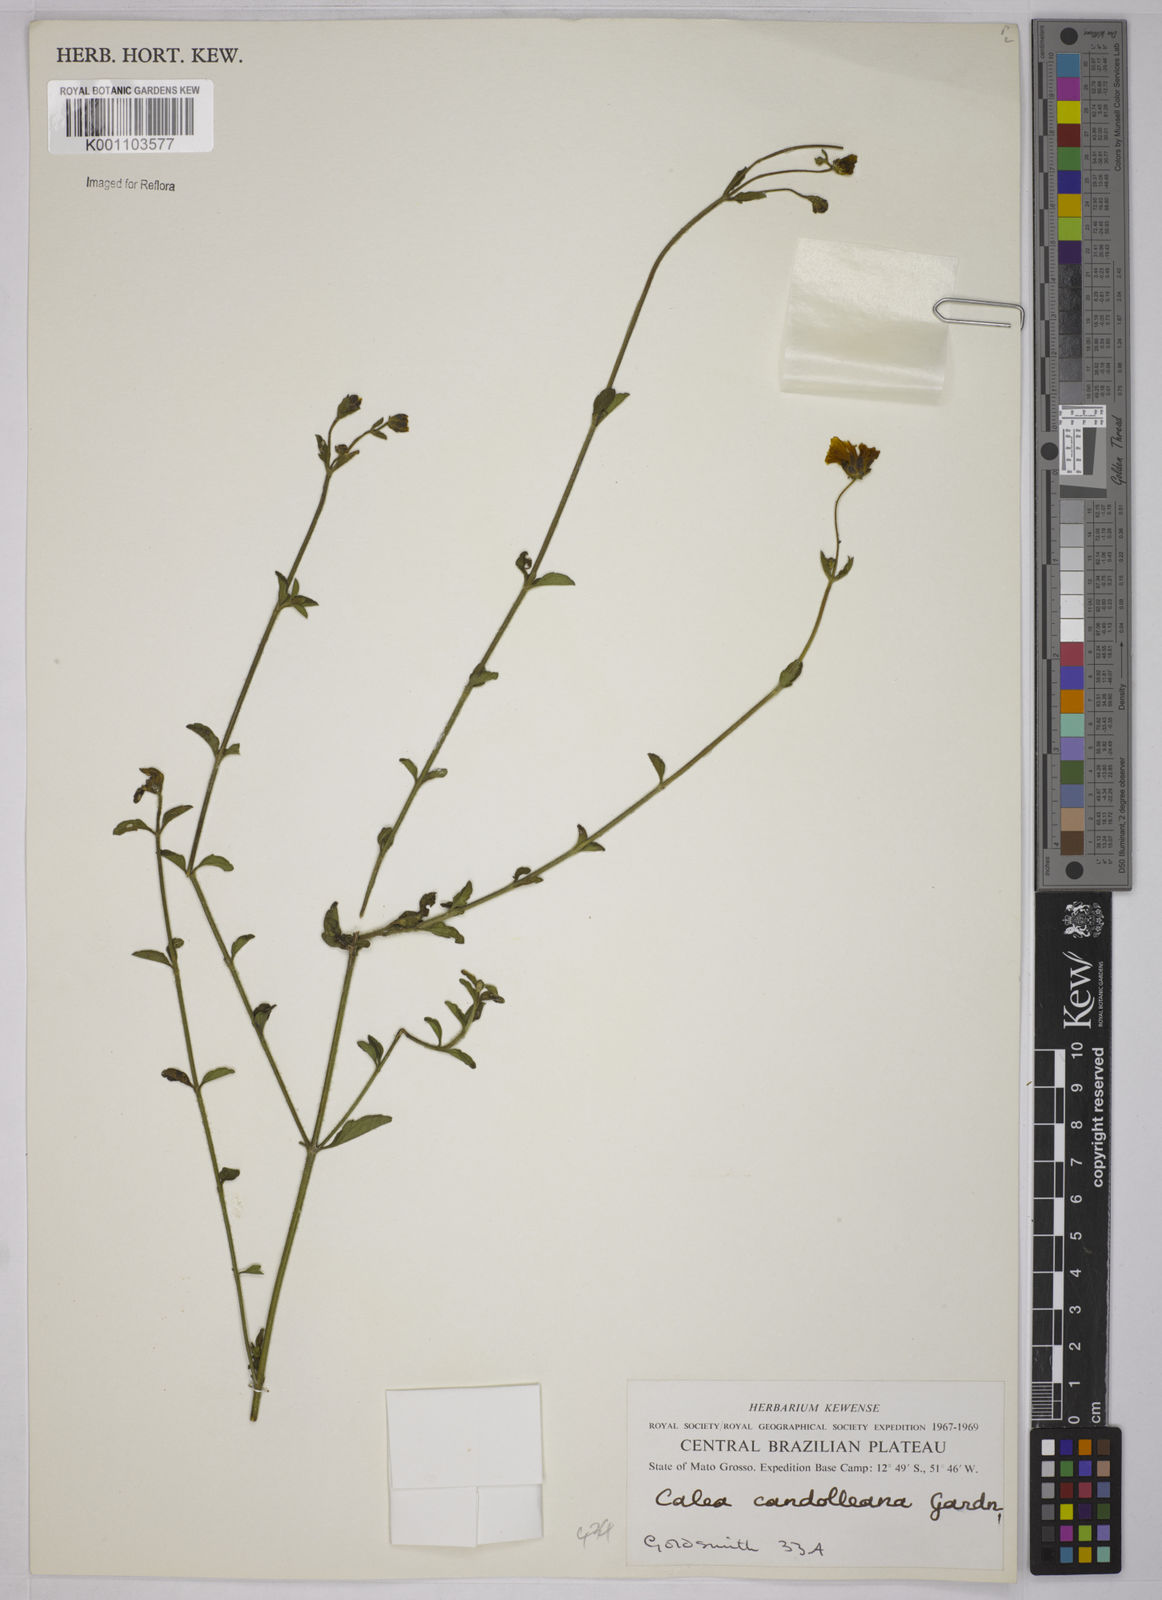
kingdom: Plantae
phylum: Tracheophyta
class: Magnoliopsida
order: Asterales
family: Asteraceae
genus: Calea
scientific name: Calea candolleana
